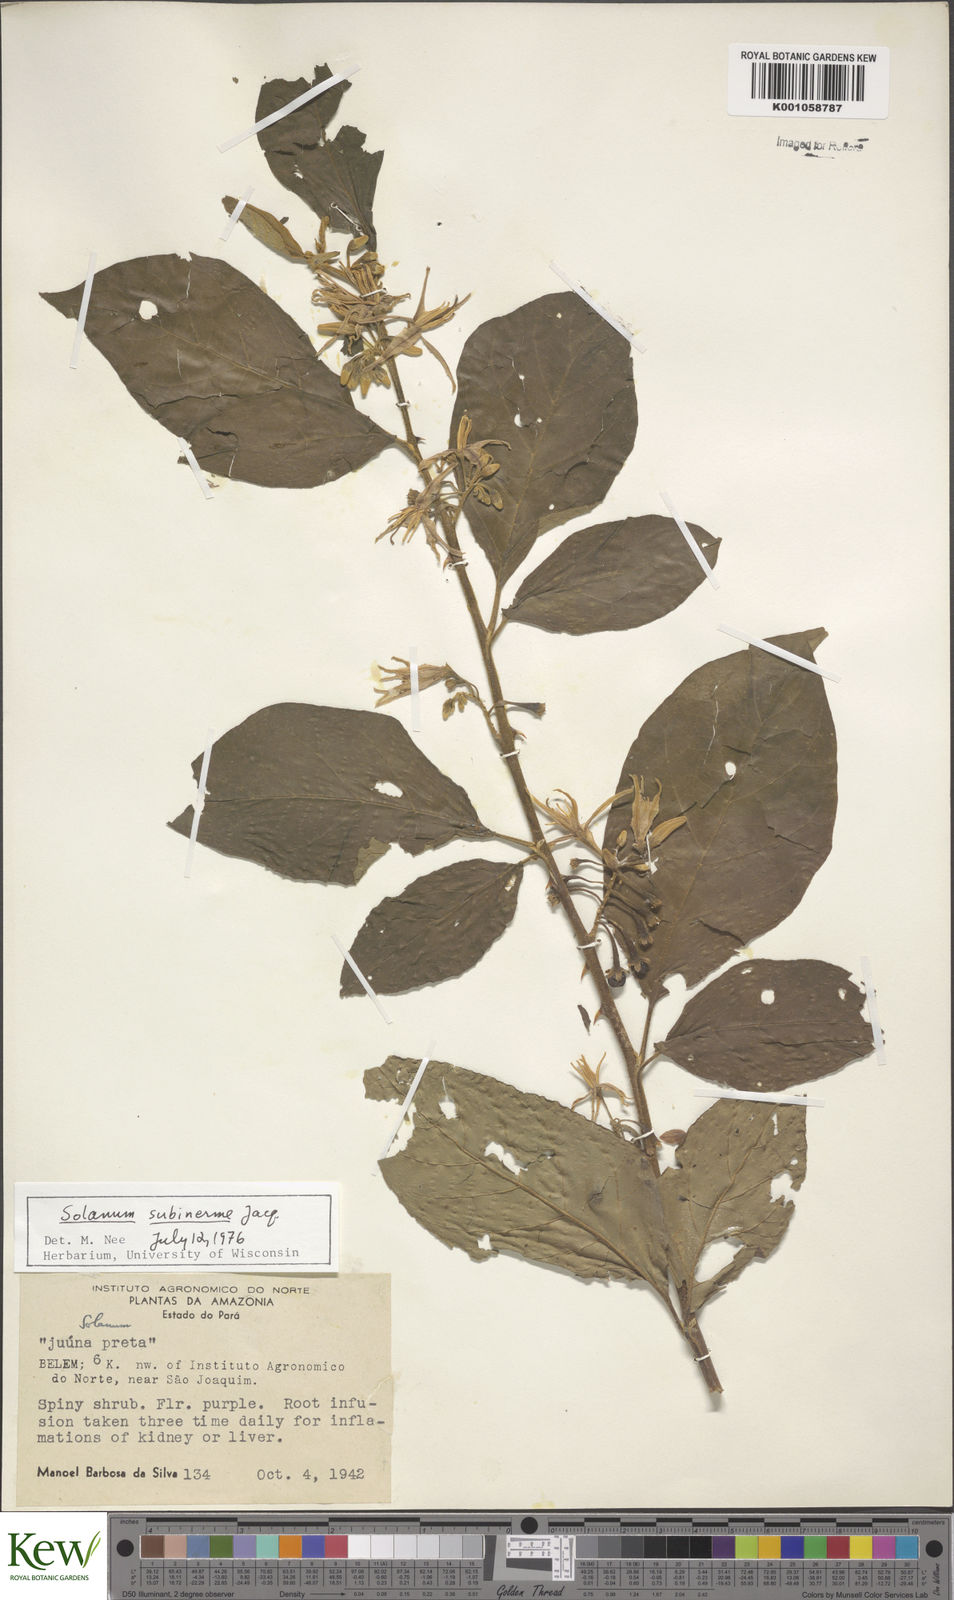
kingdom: Plantae
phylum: Tracheophyta
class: Magnoliopsida
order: Solanales
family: Solanaceae
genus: Solanum
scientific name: Solanum subinerme
